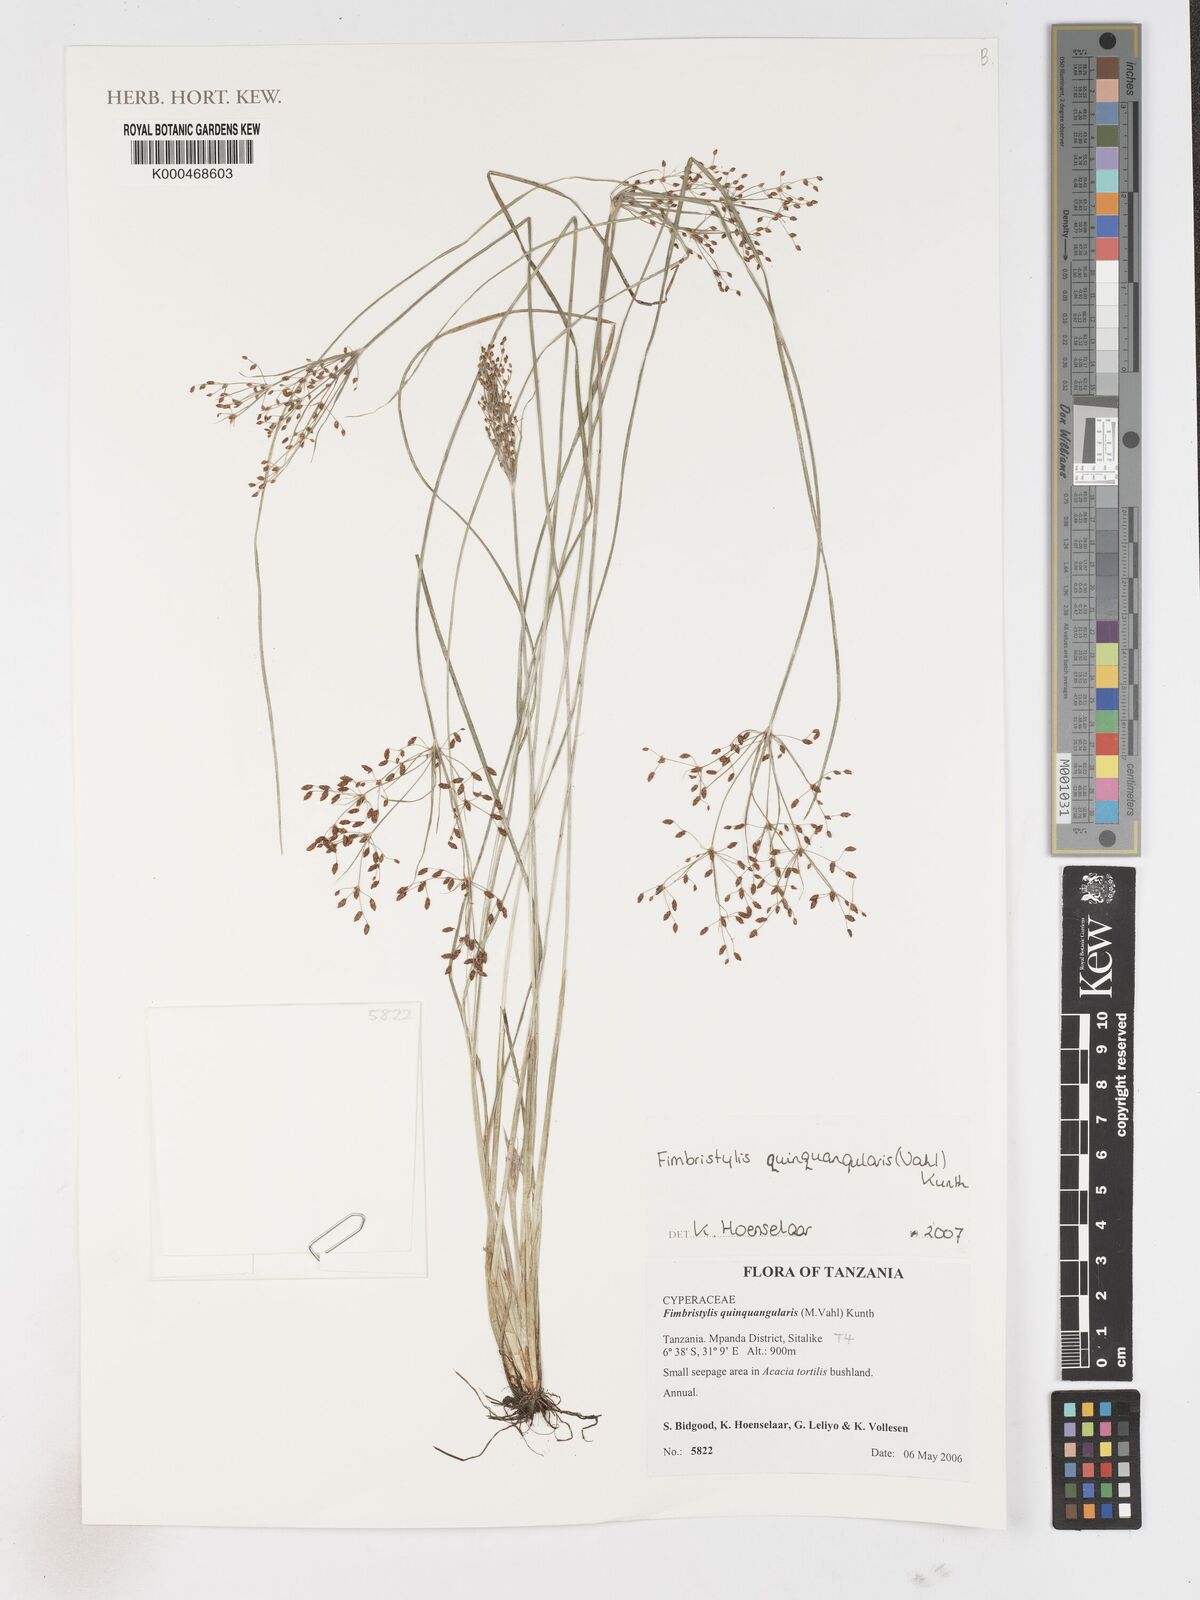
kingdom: Plantae
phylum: Tracheophyta
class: Liliopsida
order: Poales
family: Cyperaceae
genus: Fimbristylis
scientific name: Fimbristylis quinquangularis
